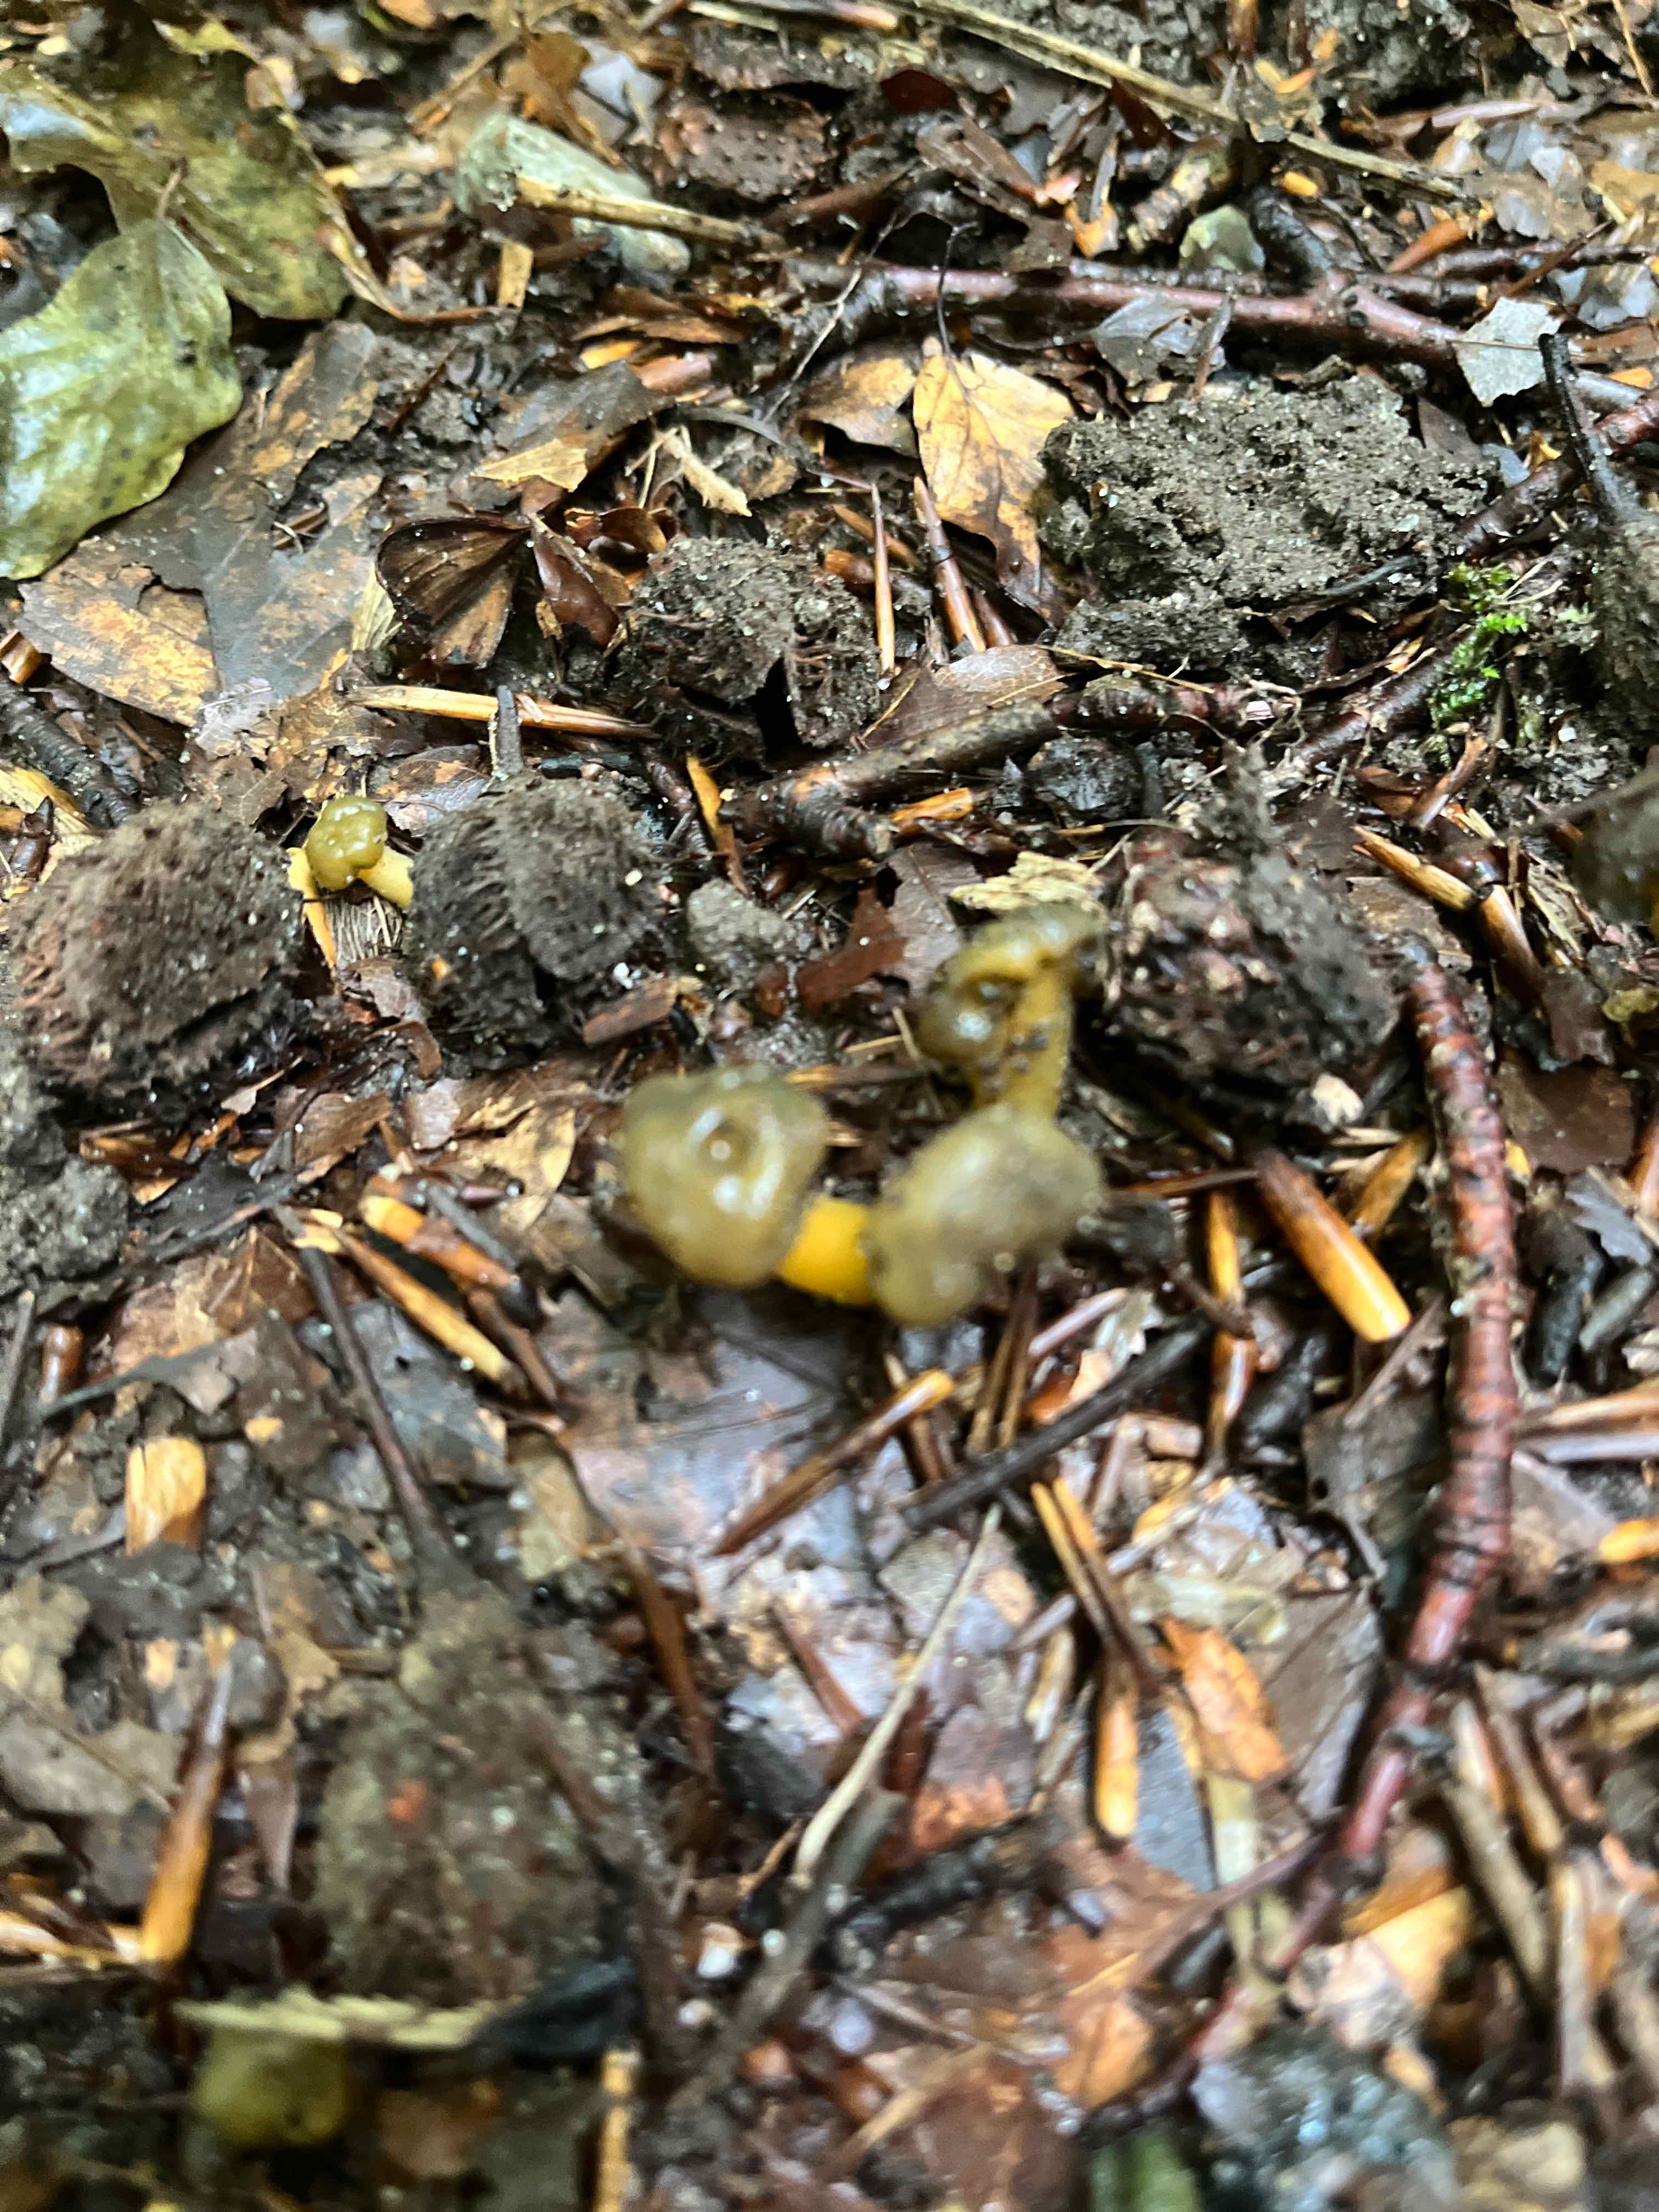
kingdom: Fungi
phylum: Ascomycota
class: Leotiomycetes
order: Leotiales
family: Leotiaceae
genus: Leotia
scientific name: Leotia lubrica
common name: ravsvamp
